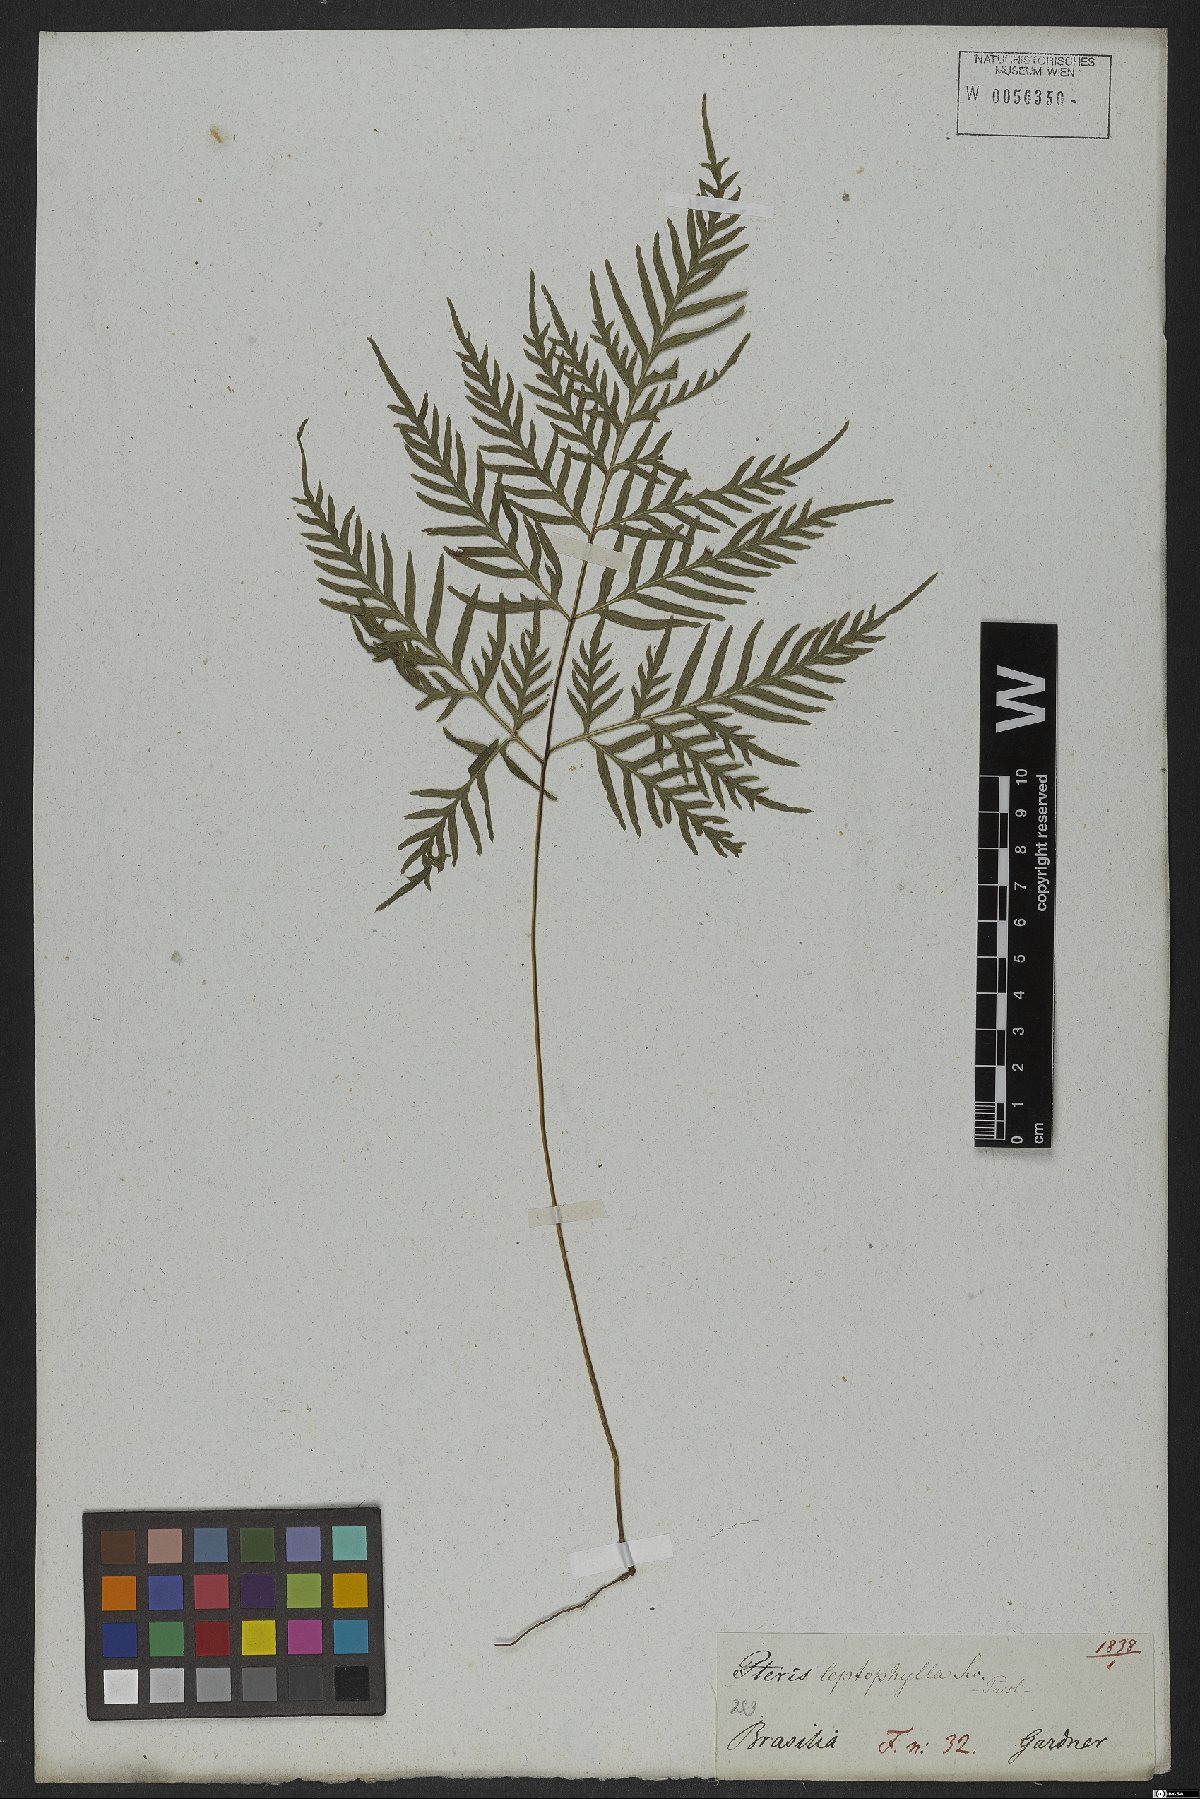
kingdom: Plantae
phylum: Tracheophyta
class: Polypodiopsida
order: Polypodiales
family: Pteridaceae
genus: Pteris
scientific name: Pteris leptophylla
